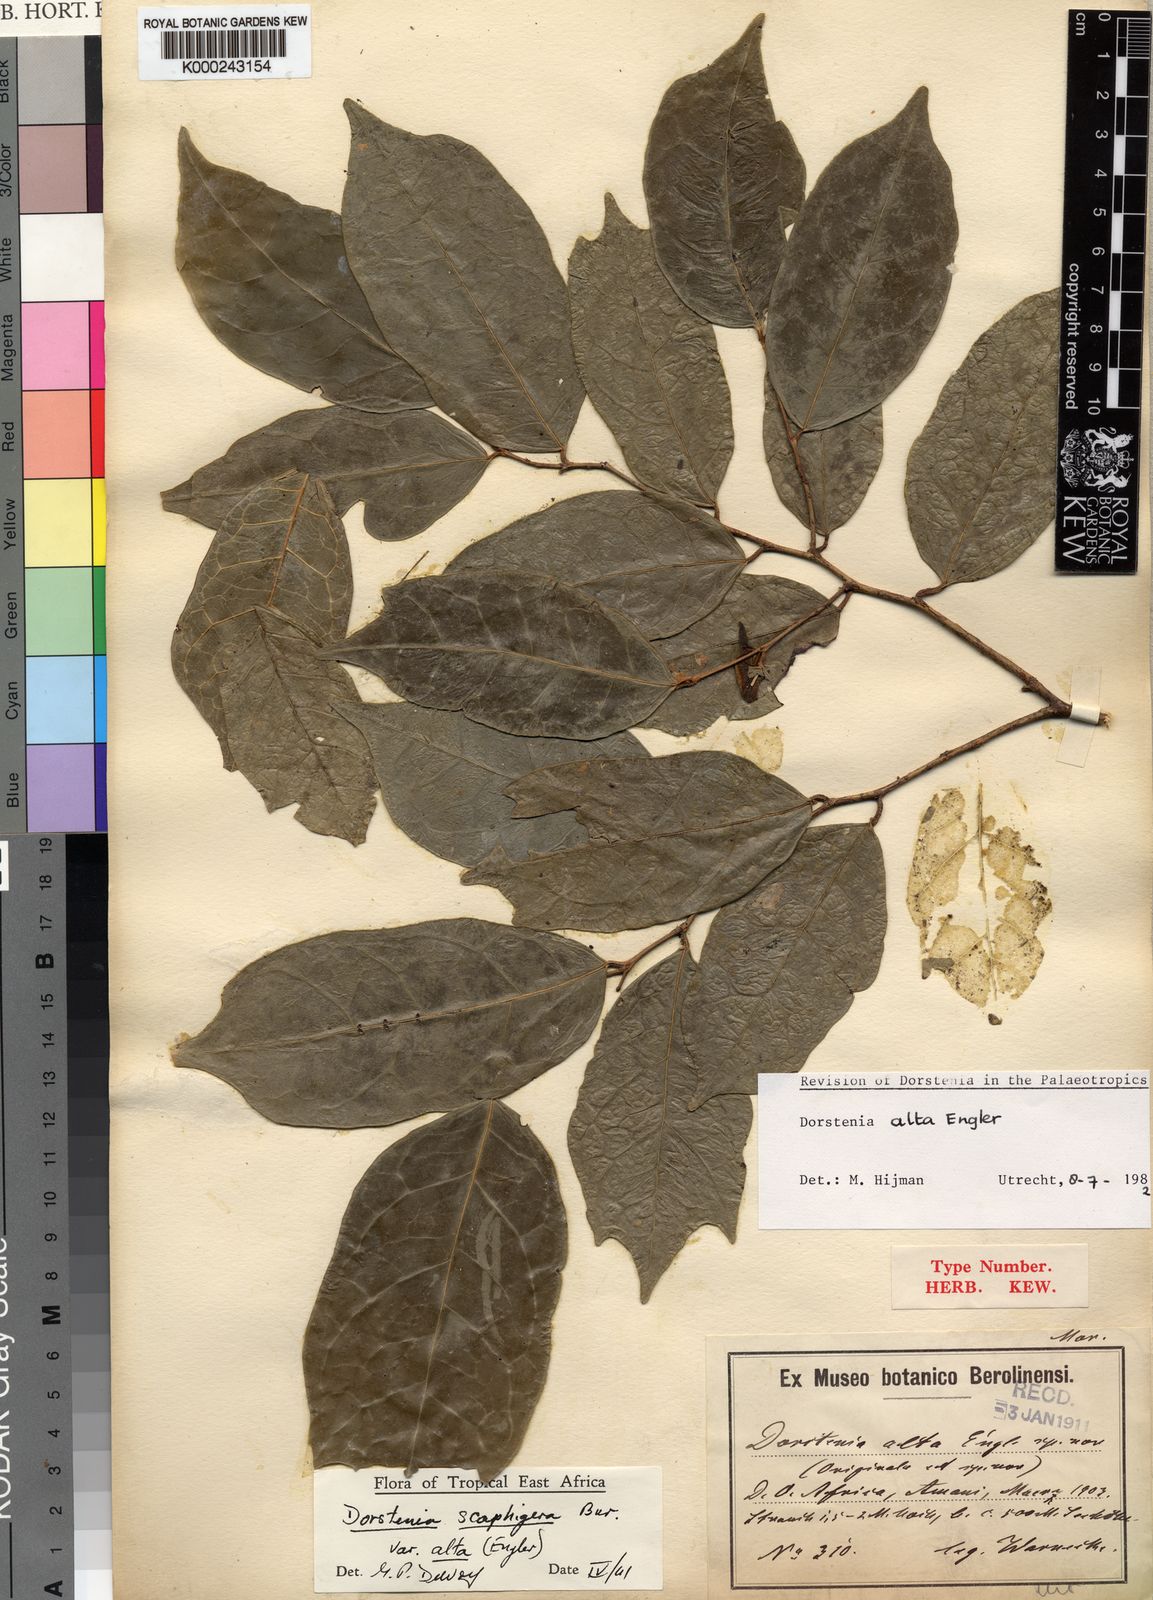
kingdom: Plantae
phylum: Tracheophyta
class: Magnoliopsida
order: Rosales
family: Moraceae
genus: Hijmania
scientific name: Hijmania alta
